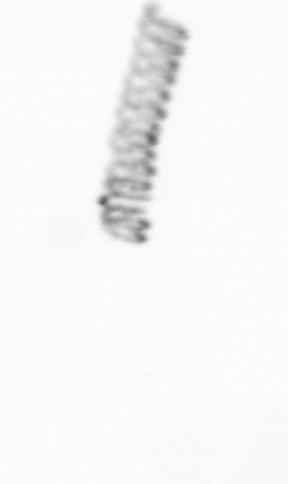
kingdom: Chromista
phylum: Ochrophyta
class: Bacillariophyceae
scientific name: Bacillariophyceae
